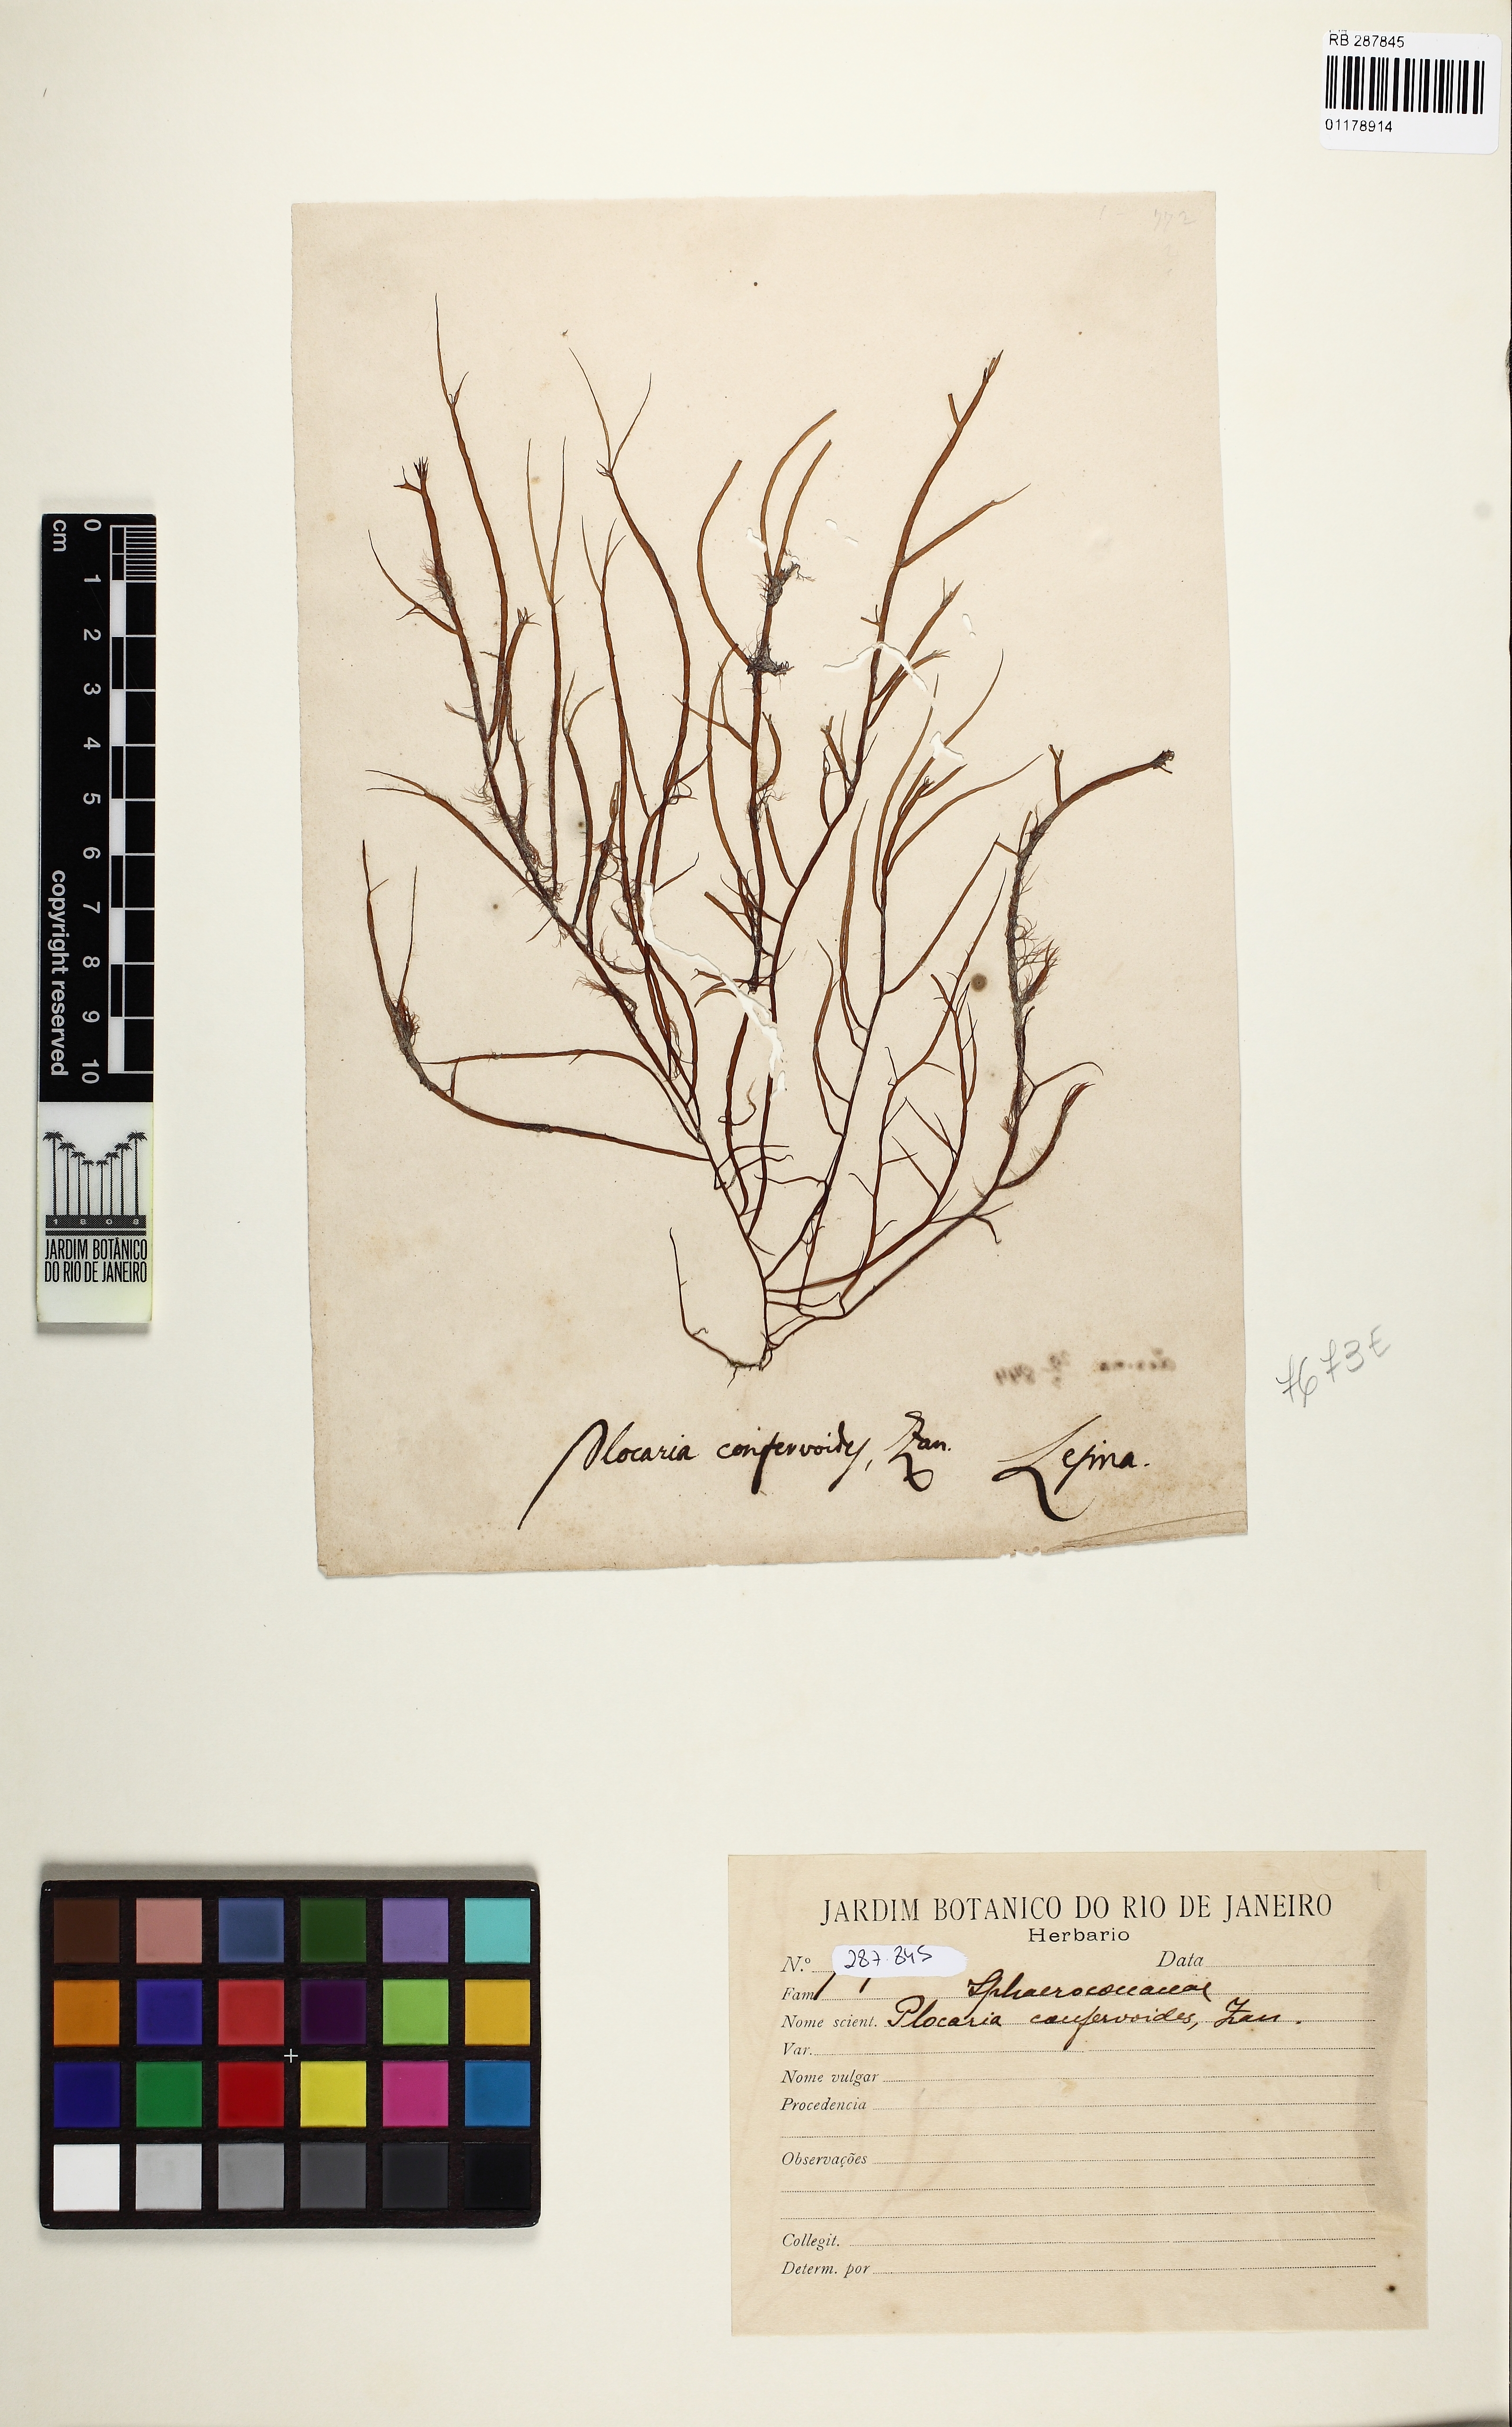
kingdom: Plantae
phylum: Rhodophyta
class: Florideophyceae
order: Gracilariales
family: Gracilariaceae
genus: Gracilaria
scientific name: Gracilaria
